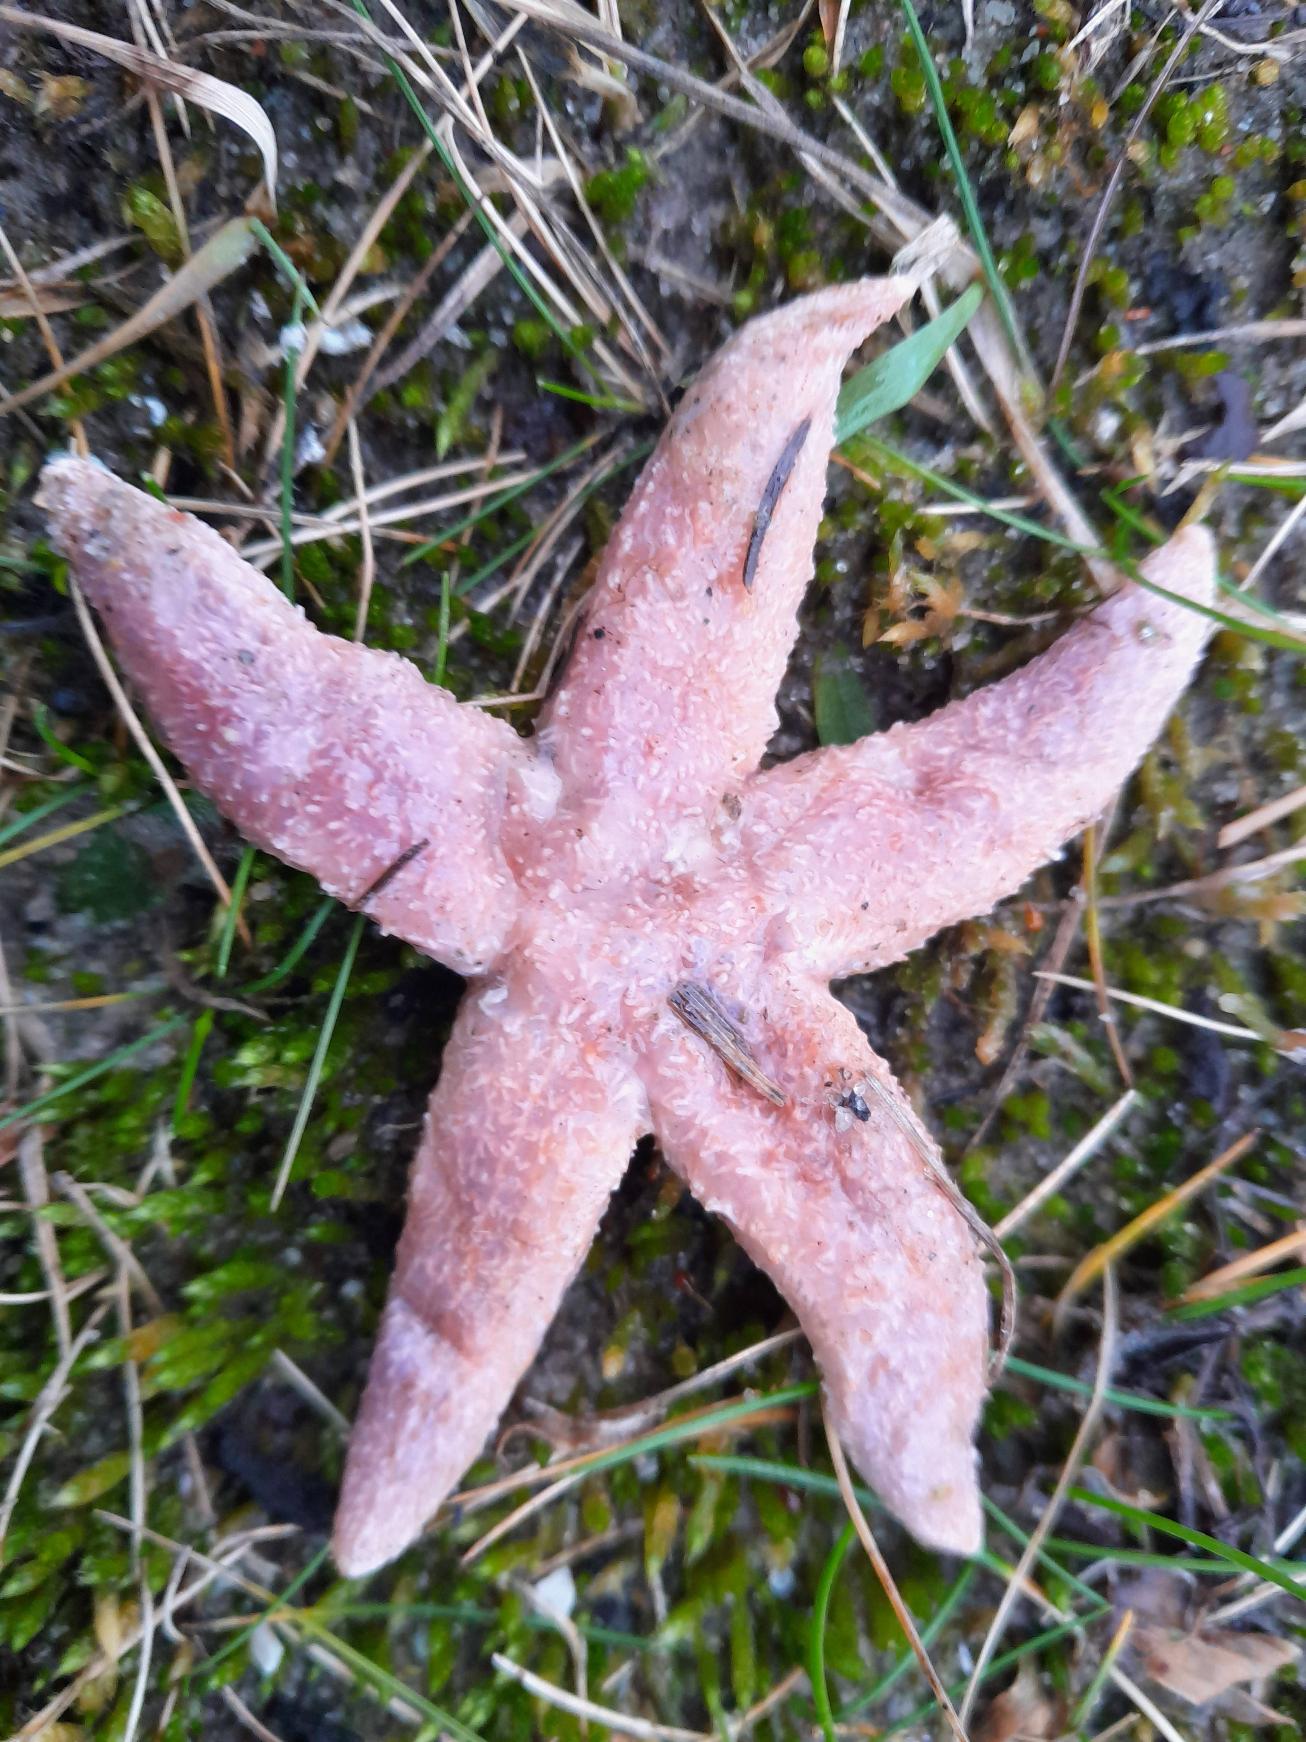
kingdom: Animalia
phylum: Echinodermata
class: Asteroidea
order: Forcipulatida
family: Asteriidae
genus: Asterias
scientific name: Asterias rubens
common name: Almindelig søstjerne
